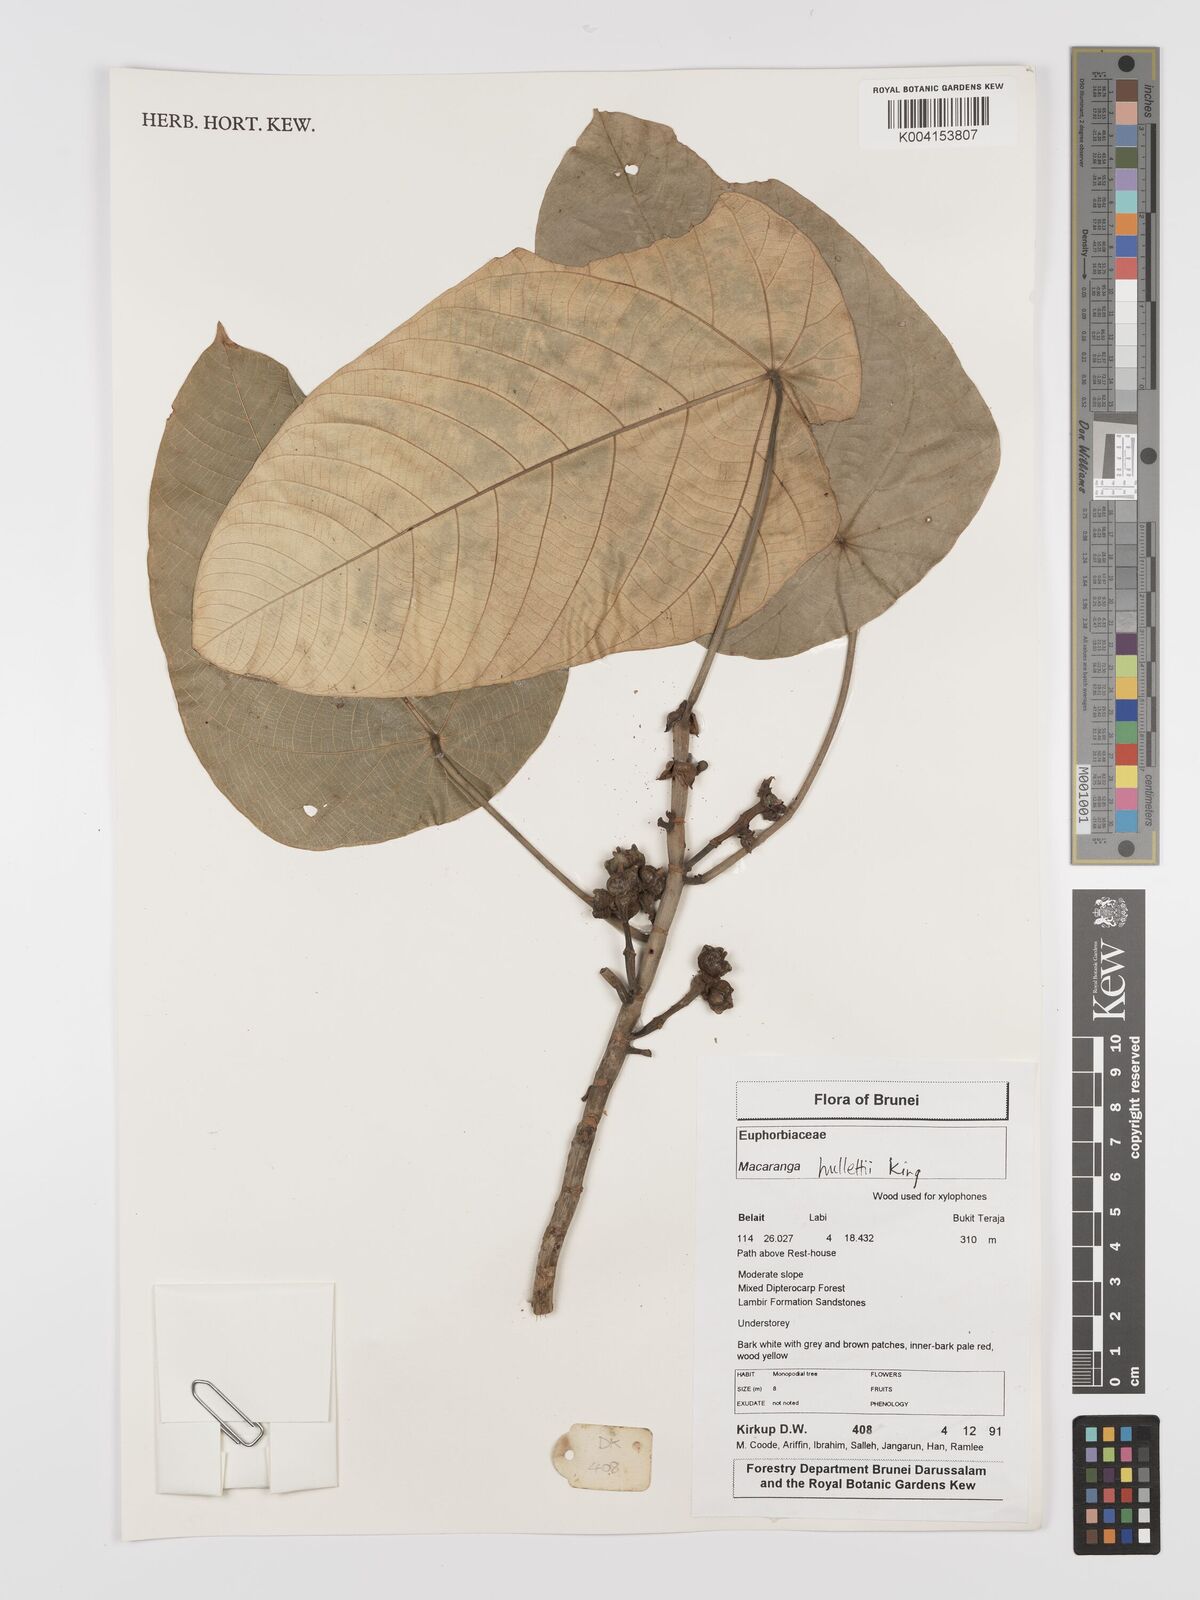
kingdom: Plantae
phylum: Tracheophyta
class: Magnoliopsida
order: Malpighiales
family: Euphorbiaceae
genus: Macaranga
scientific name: Macaranga hullettii
